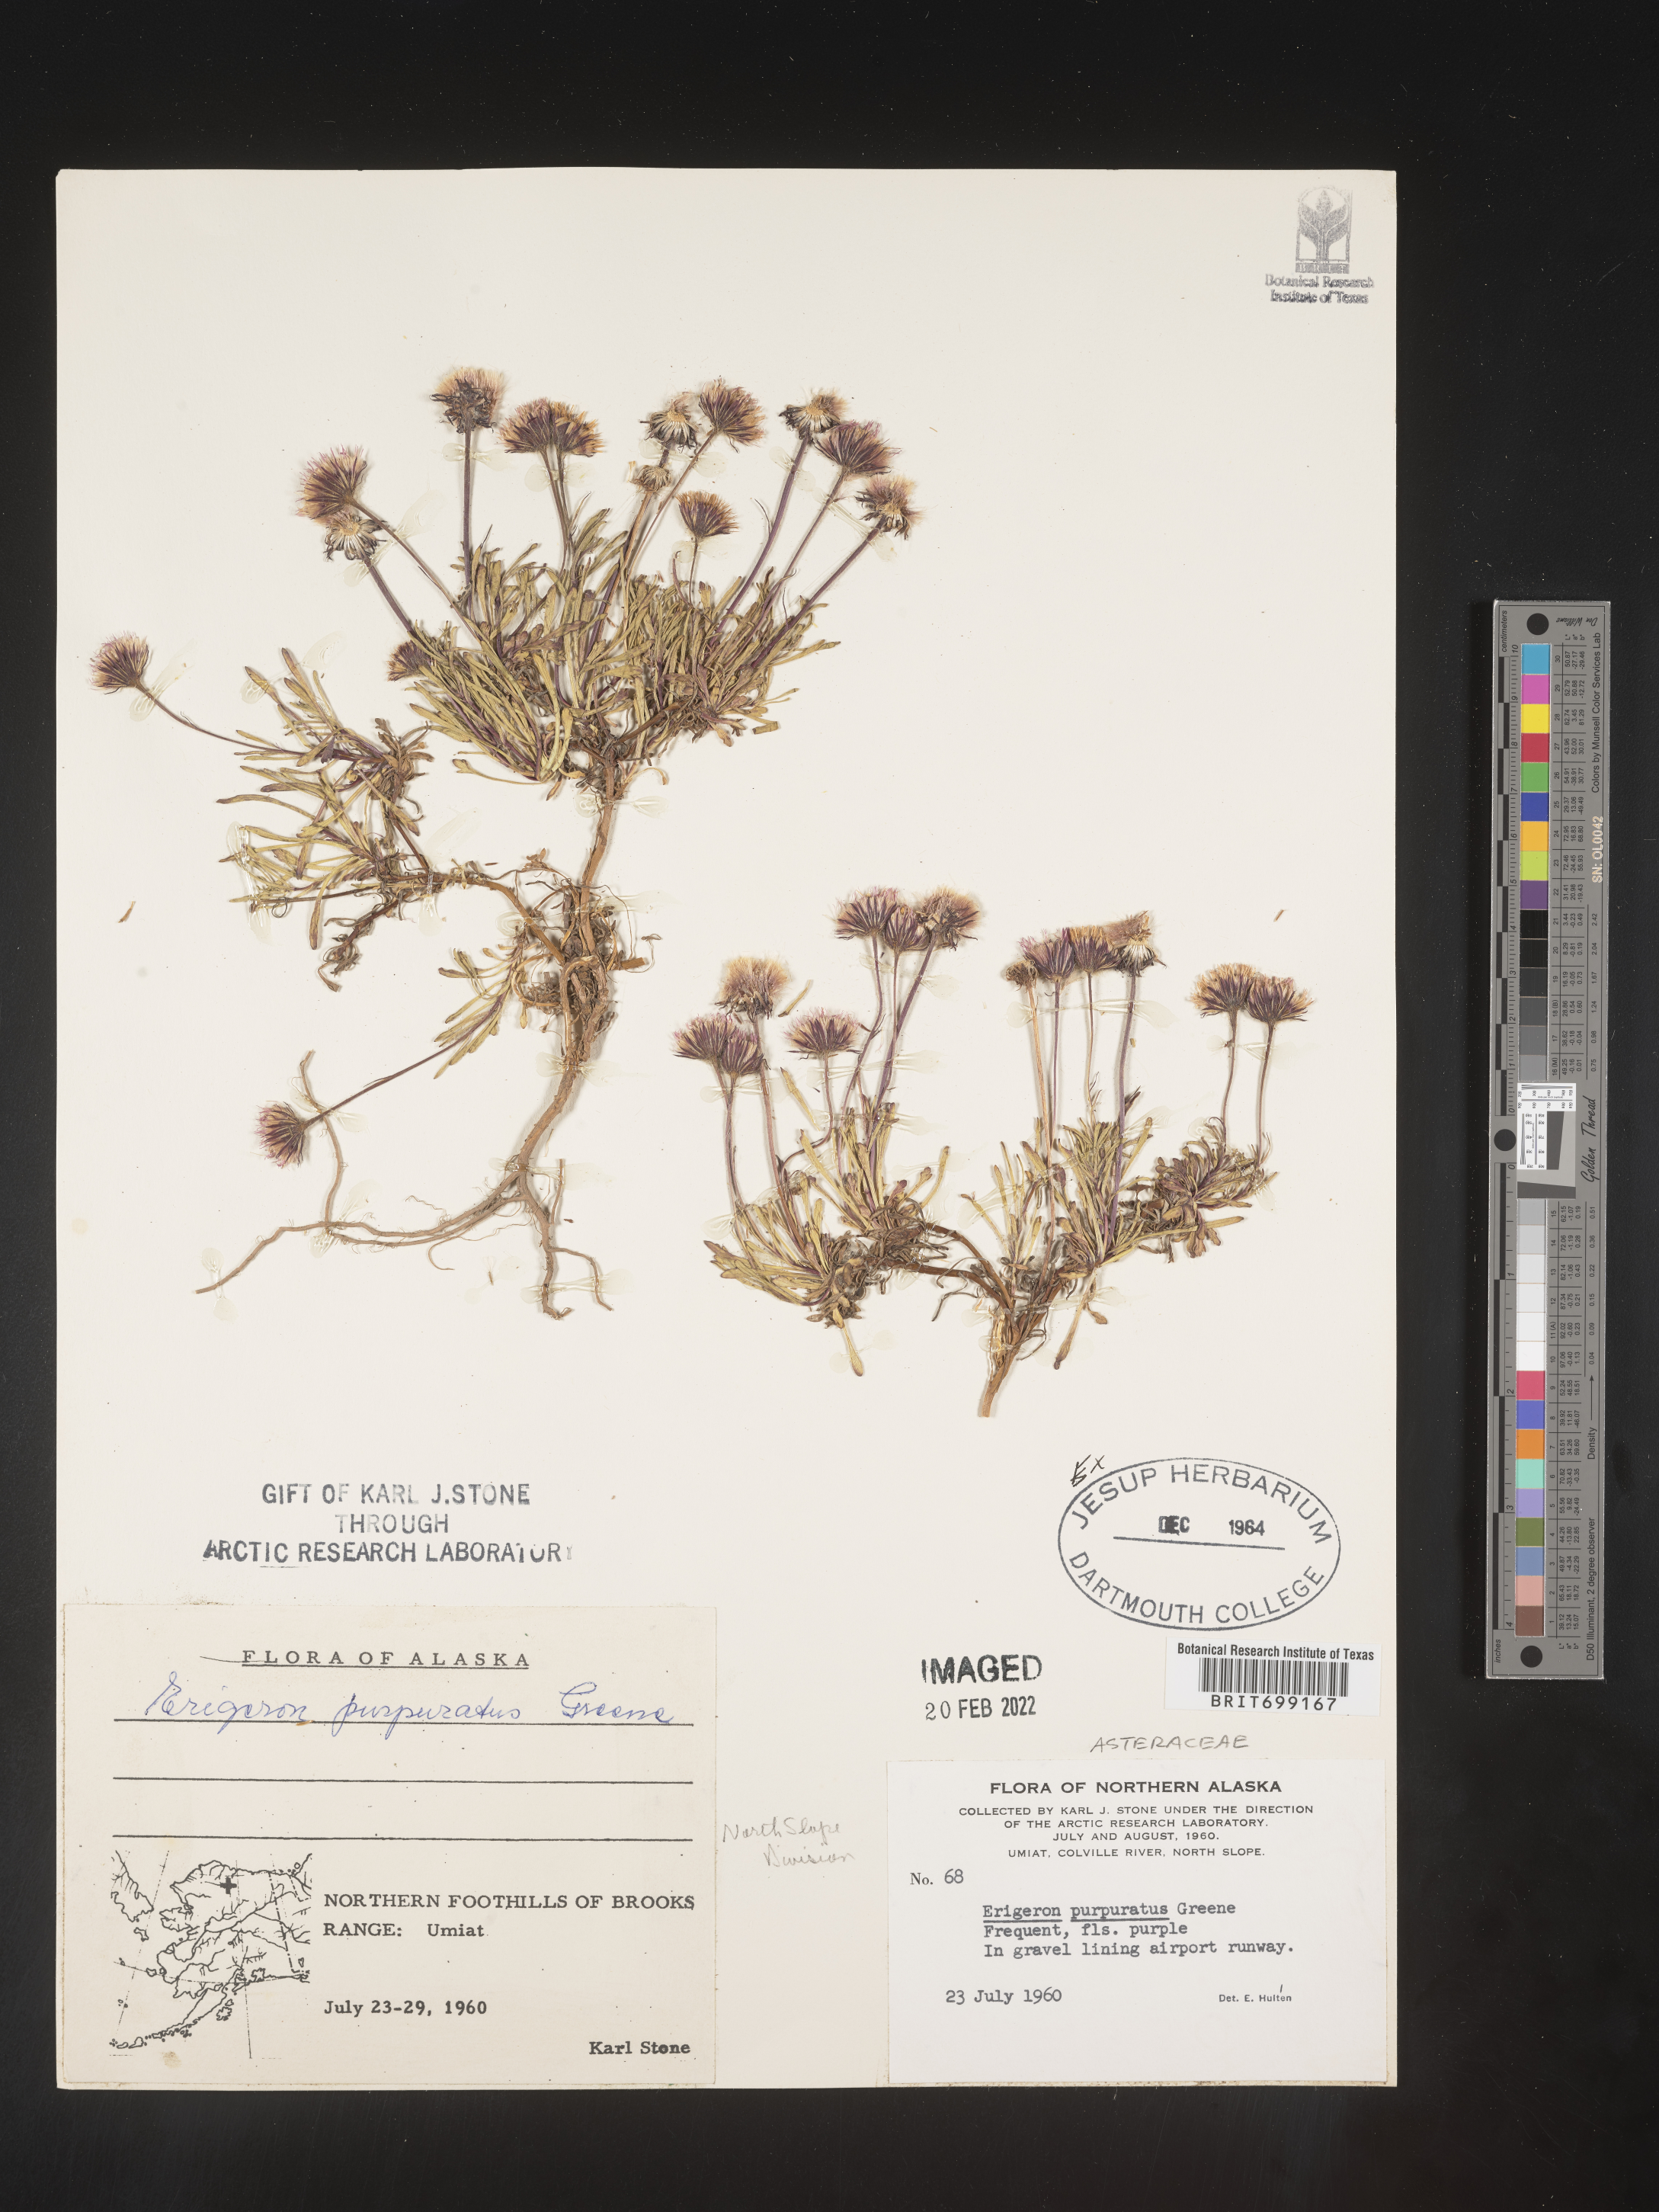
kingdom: Plantae
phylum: Tracheophyta
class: Magnoliopsida
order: Asterales
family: Asteraceae
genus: Erigeron
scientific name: Erigeron purpuratus
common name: Purple fleabane
